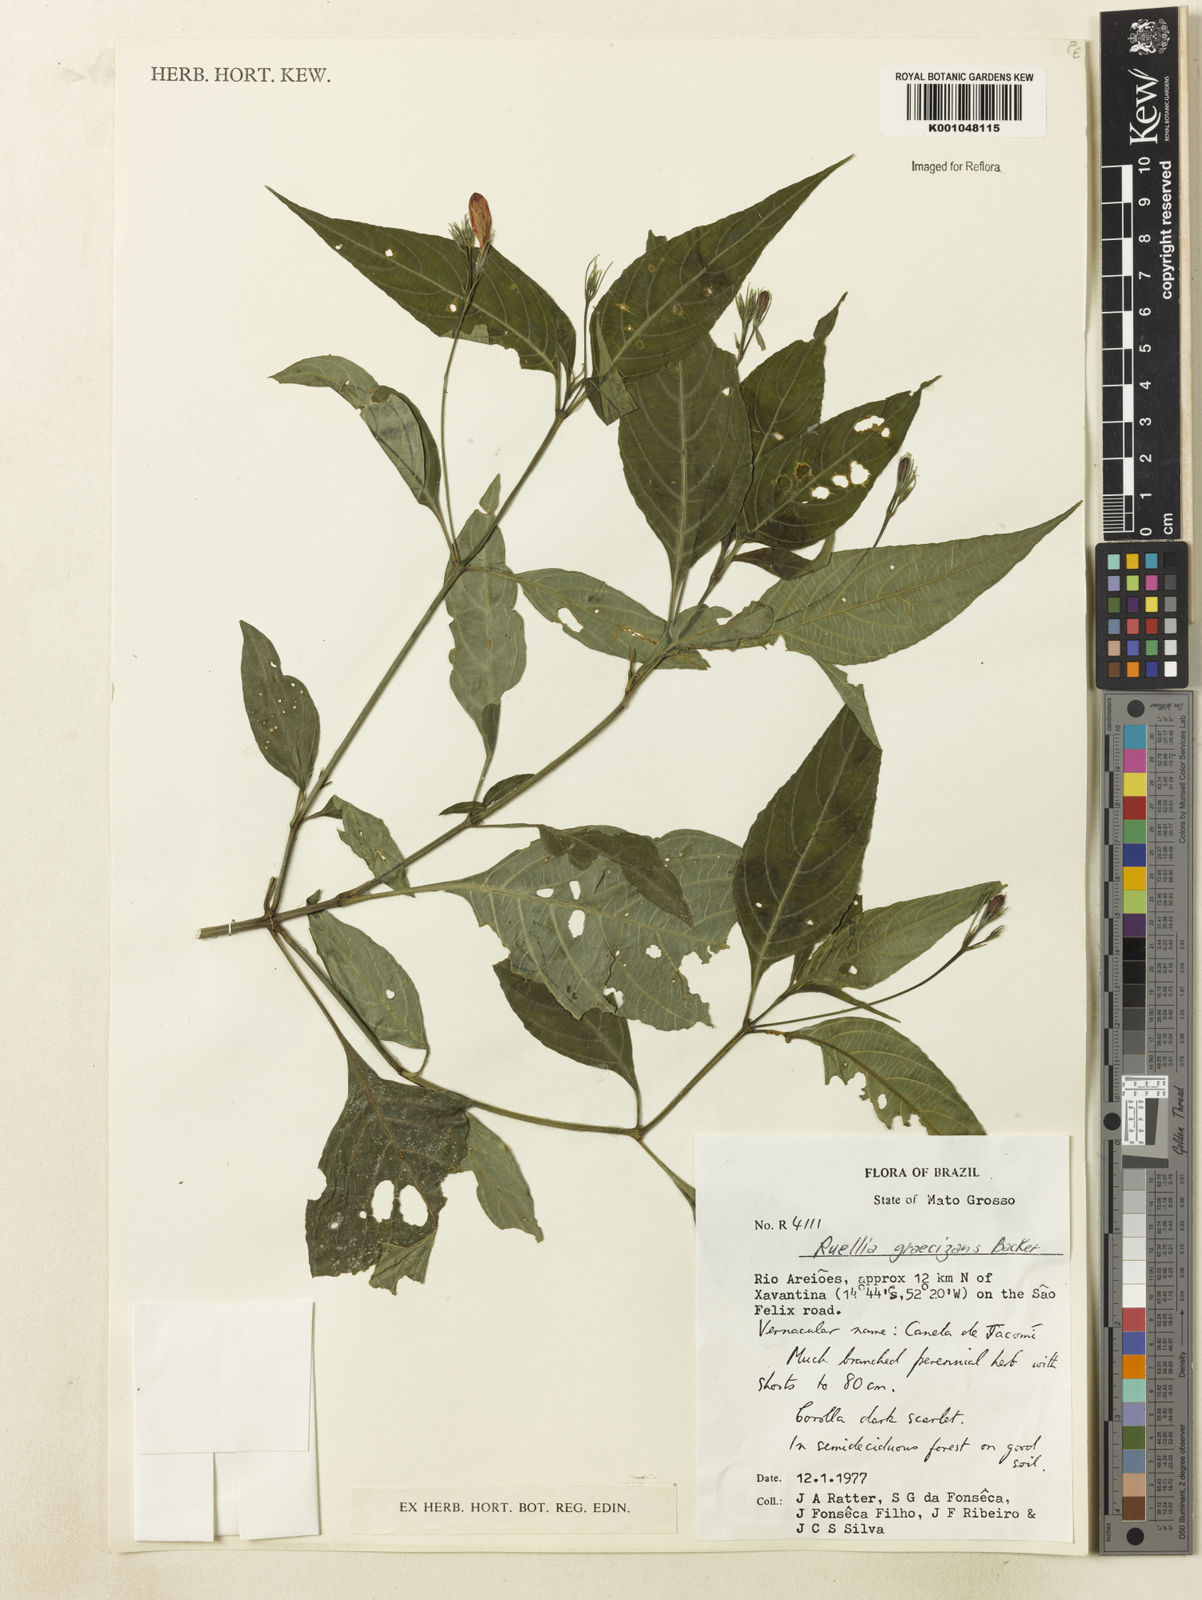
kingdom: Plantae
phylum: Tracheophyta
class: Magnoliopsida
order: Lamiales
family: Acanthaceae
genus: Ruellia
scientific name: Ruellia brevifolia
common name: Tropical wild petunia
